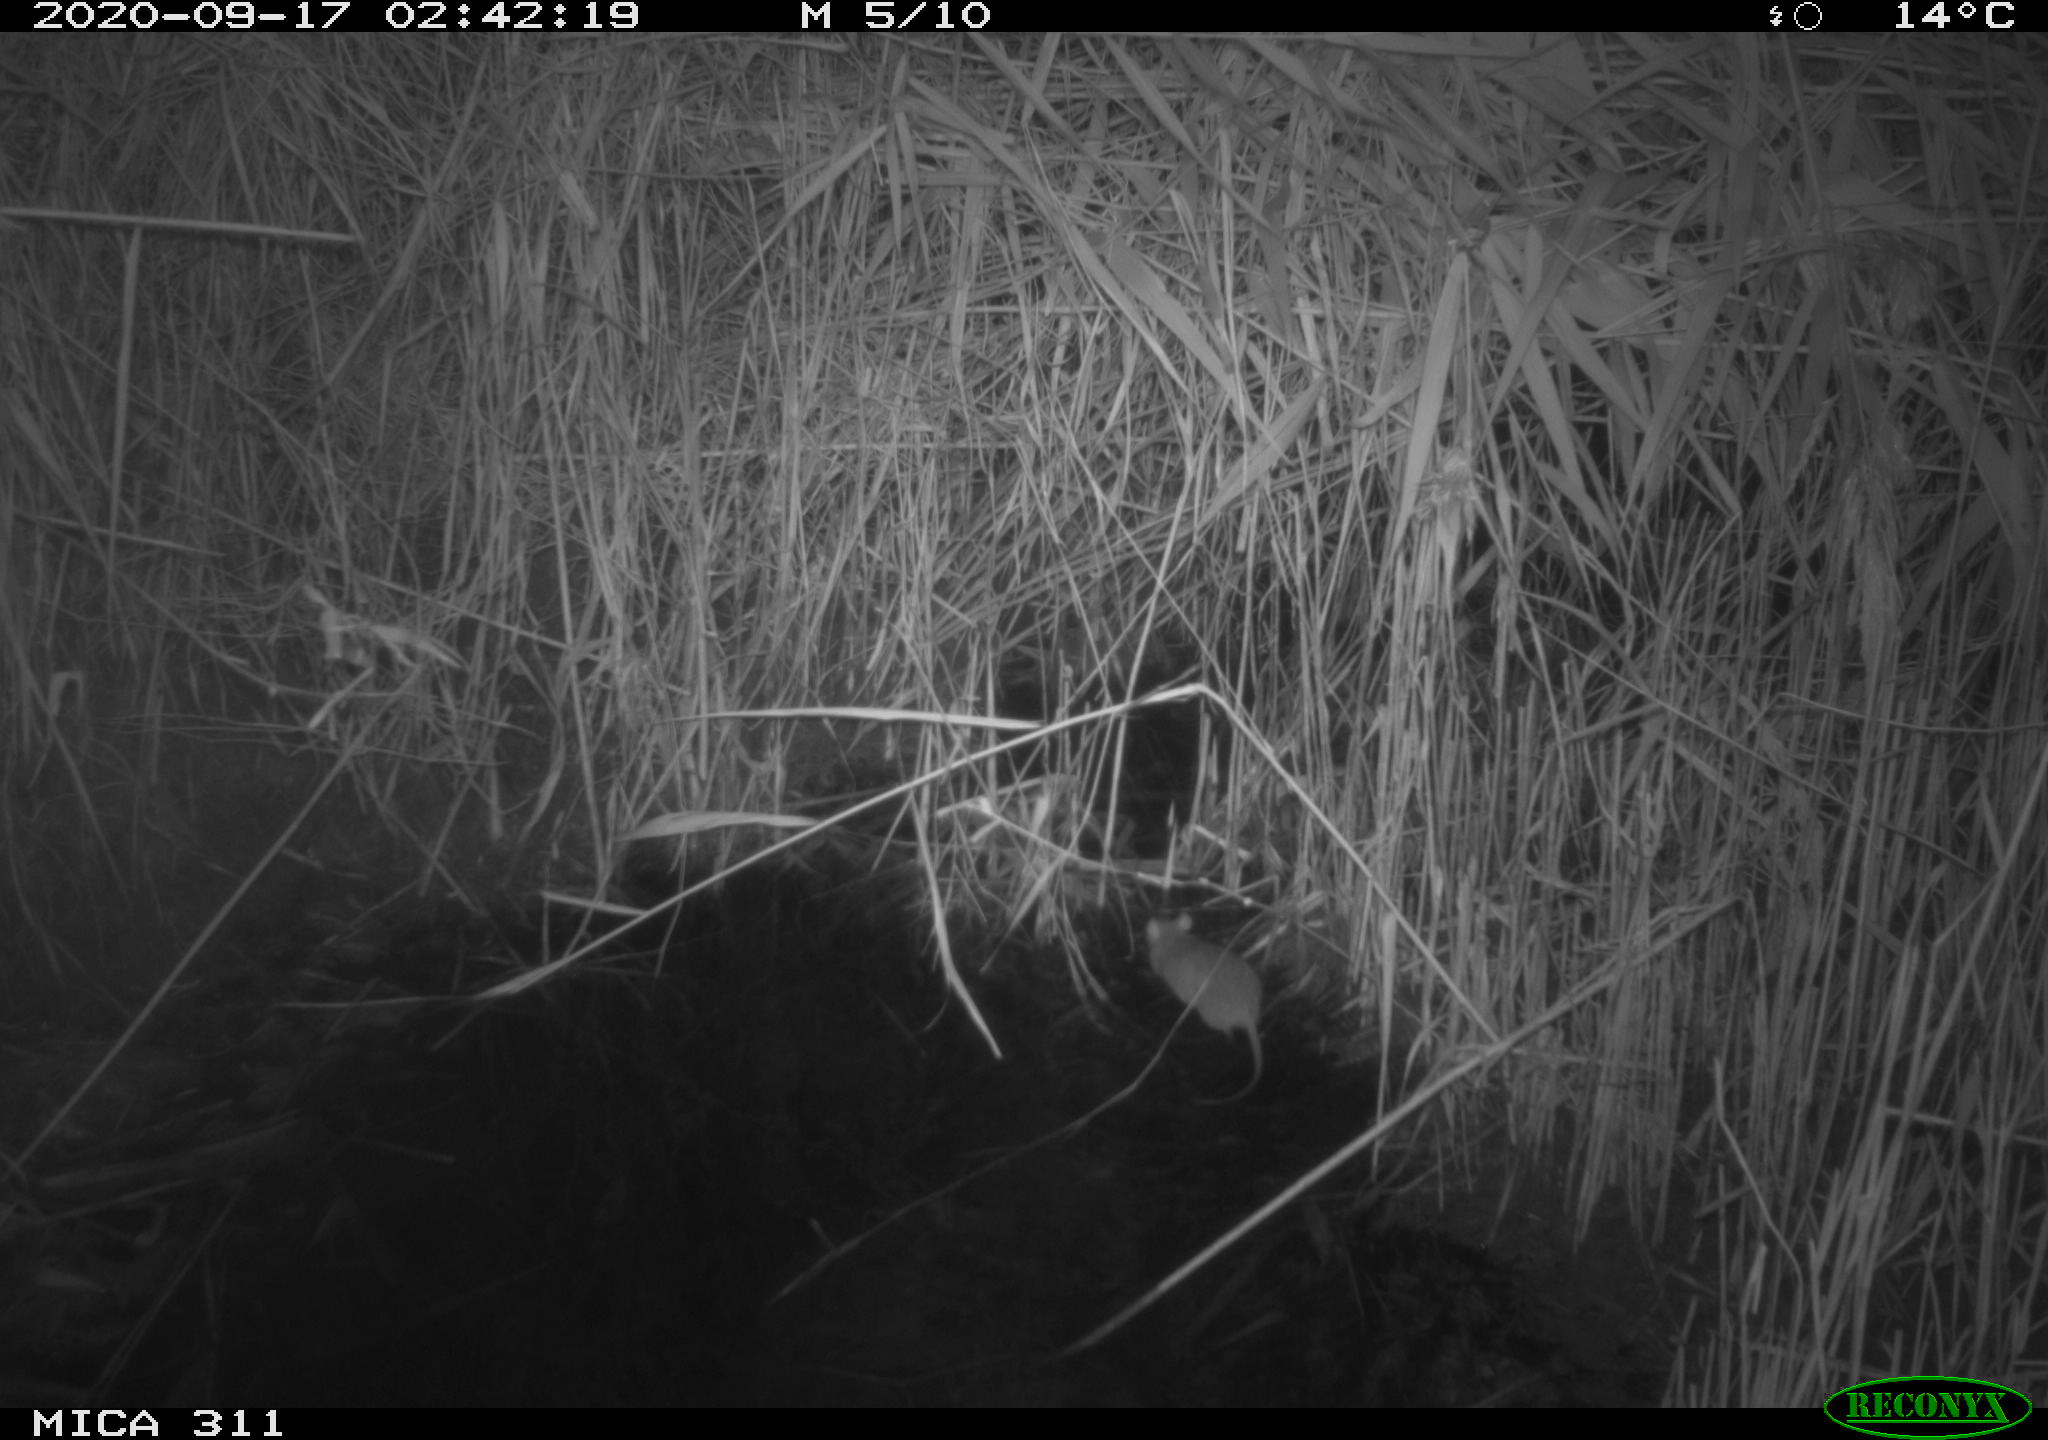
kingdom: Animalia
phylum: Chordata
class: Mammalia
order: Rodentia
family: Muridae
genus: Rattus
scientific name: Rattus norvegicus
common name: Brown rat
